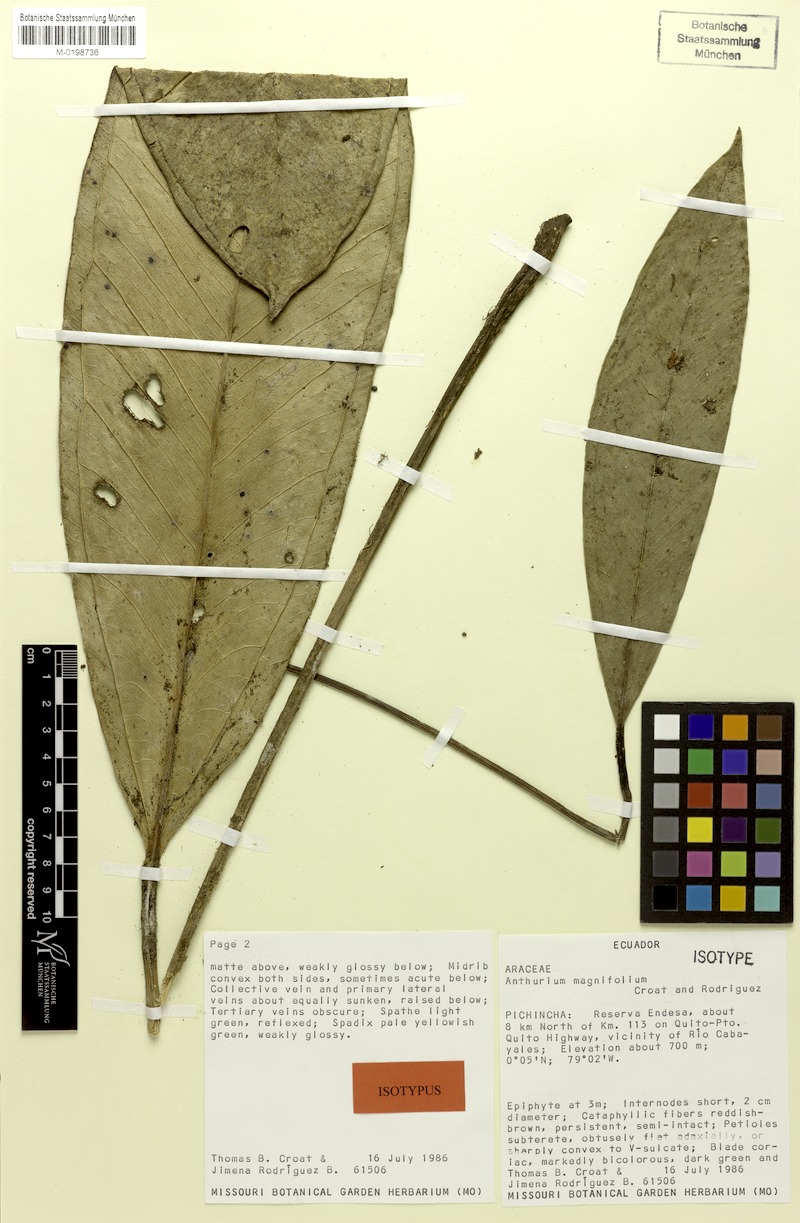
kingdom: Plantae
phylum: Tracheophyta
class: Liliopsida
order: Alismatales
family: Araceae
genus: Anthurium
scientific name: Anthurium magnifolium
